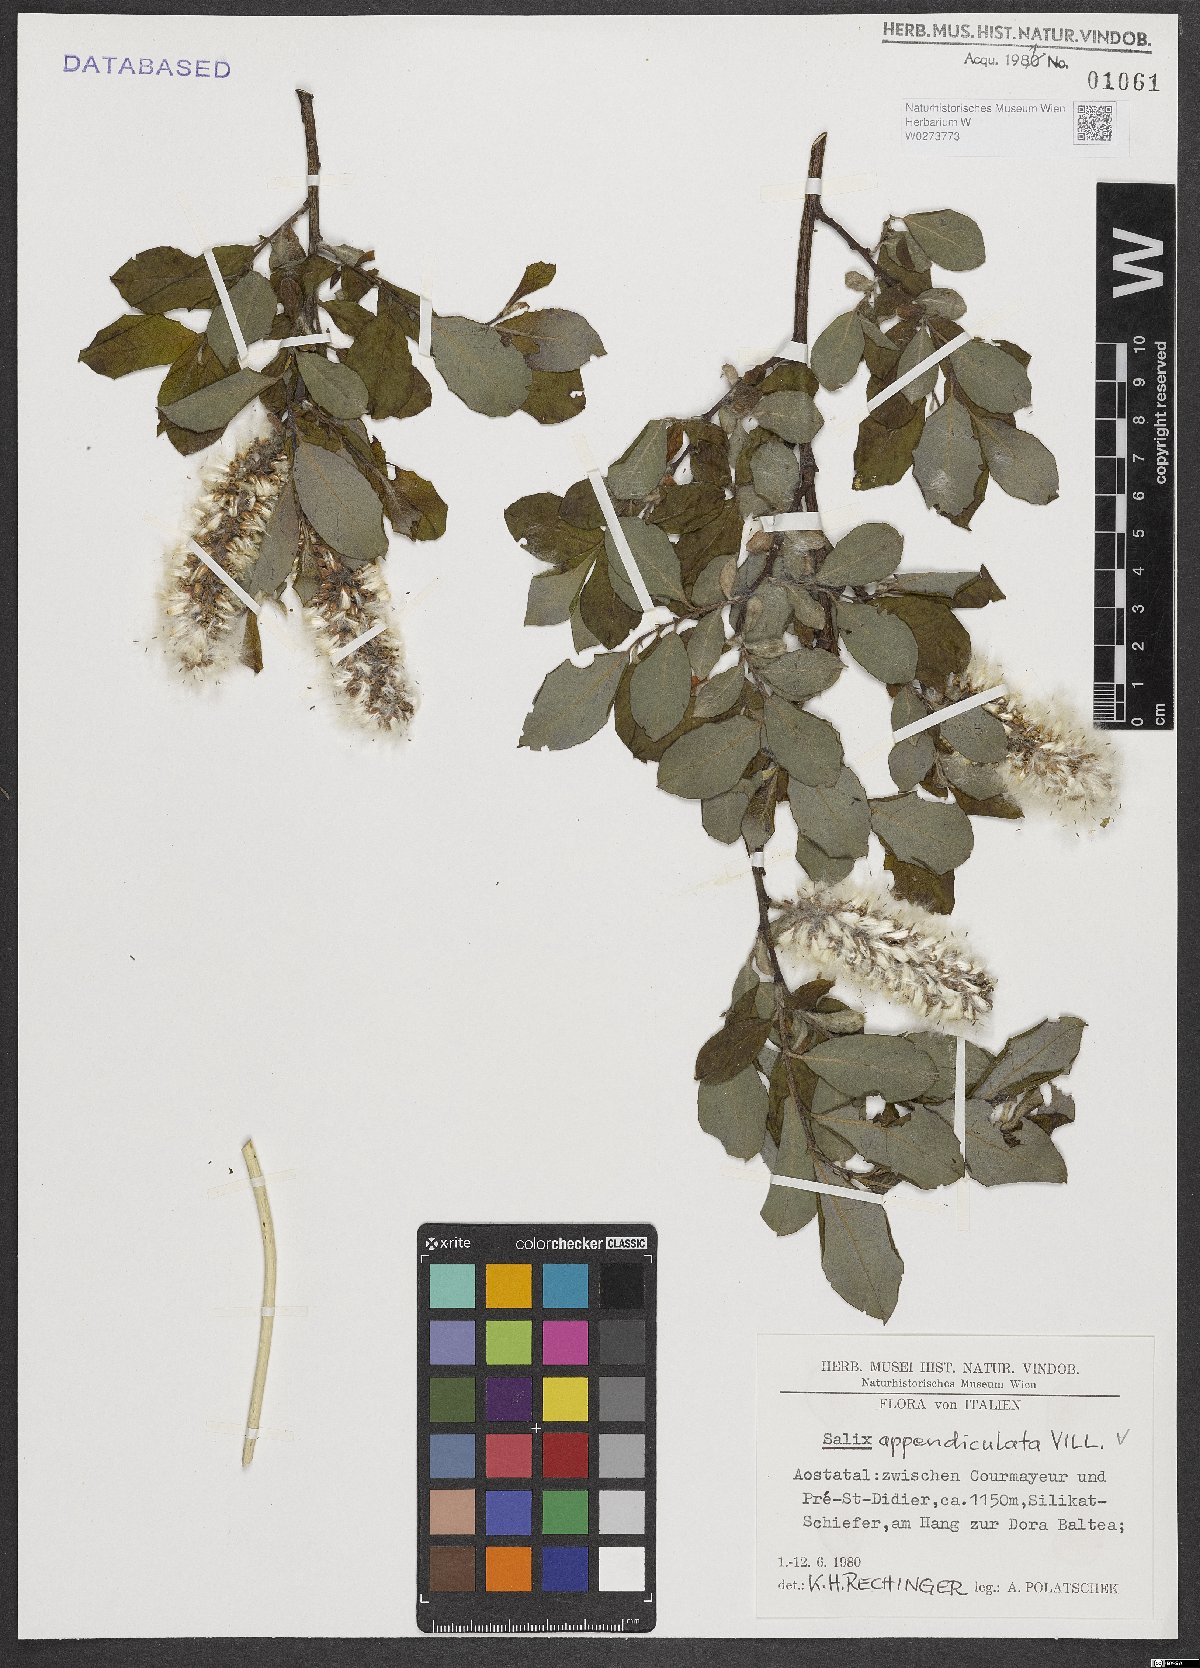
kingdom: Plantae
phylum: Tracheophyta
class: Magnoliopsida
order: Malpighiales
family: Salicaceae
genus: Salix
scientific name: Salix appendiculata
